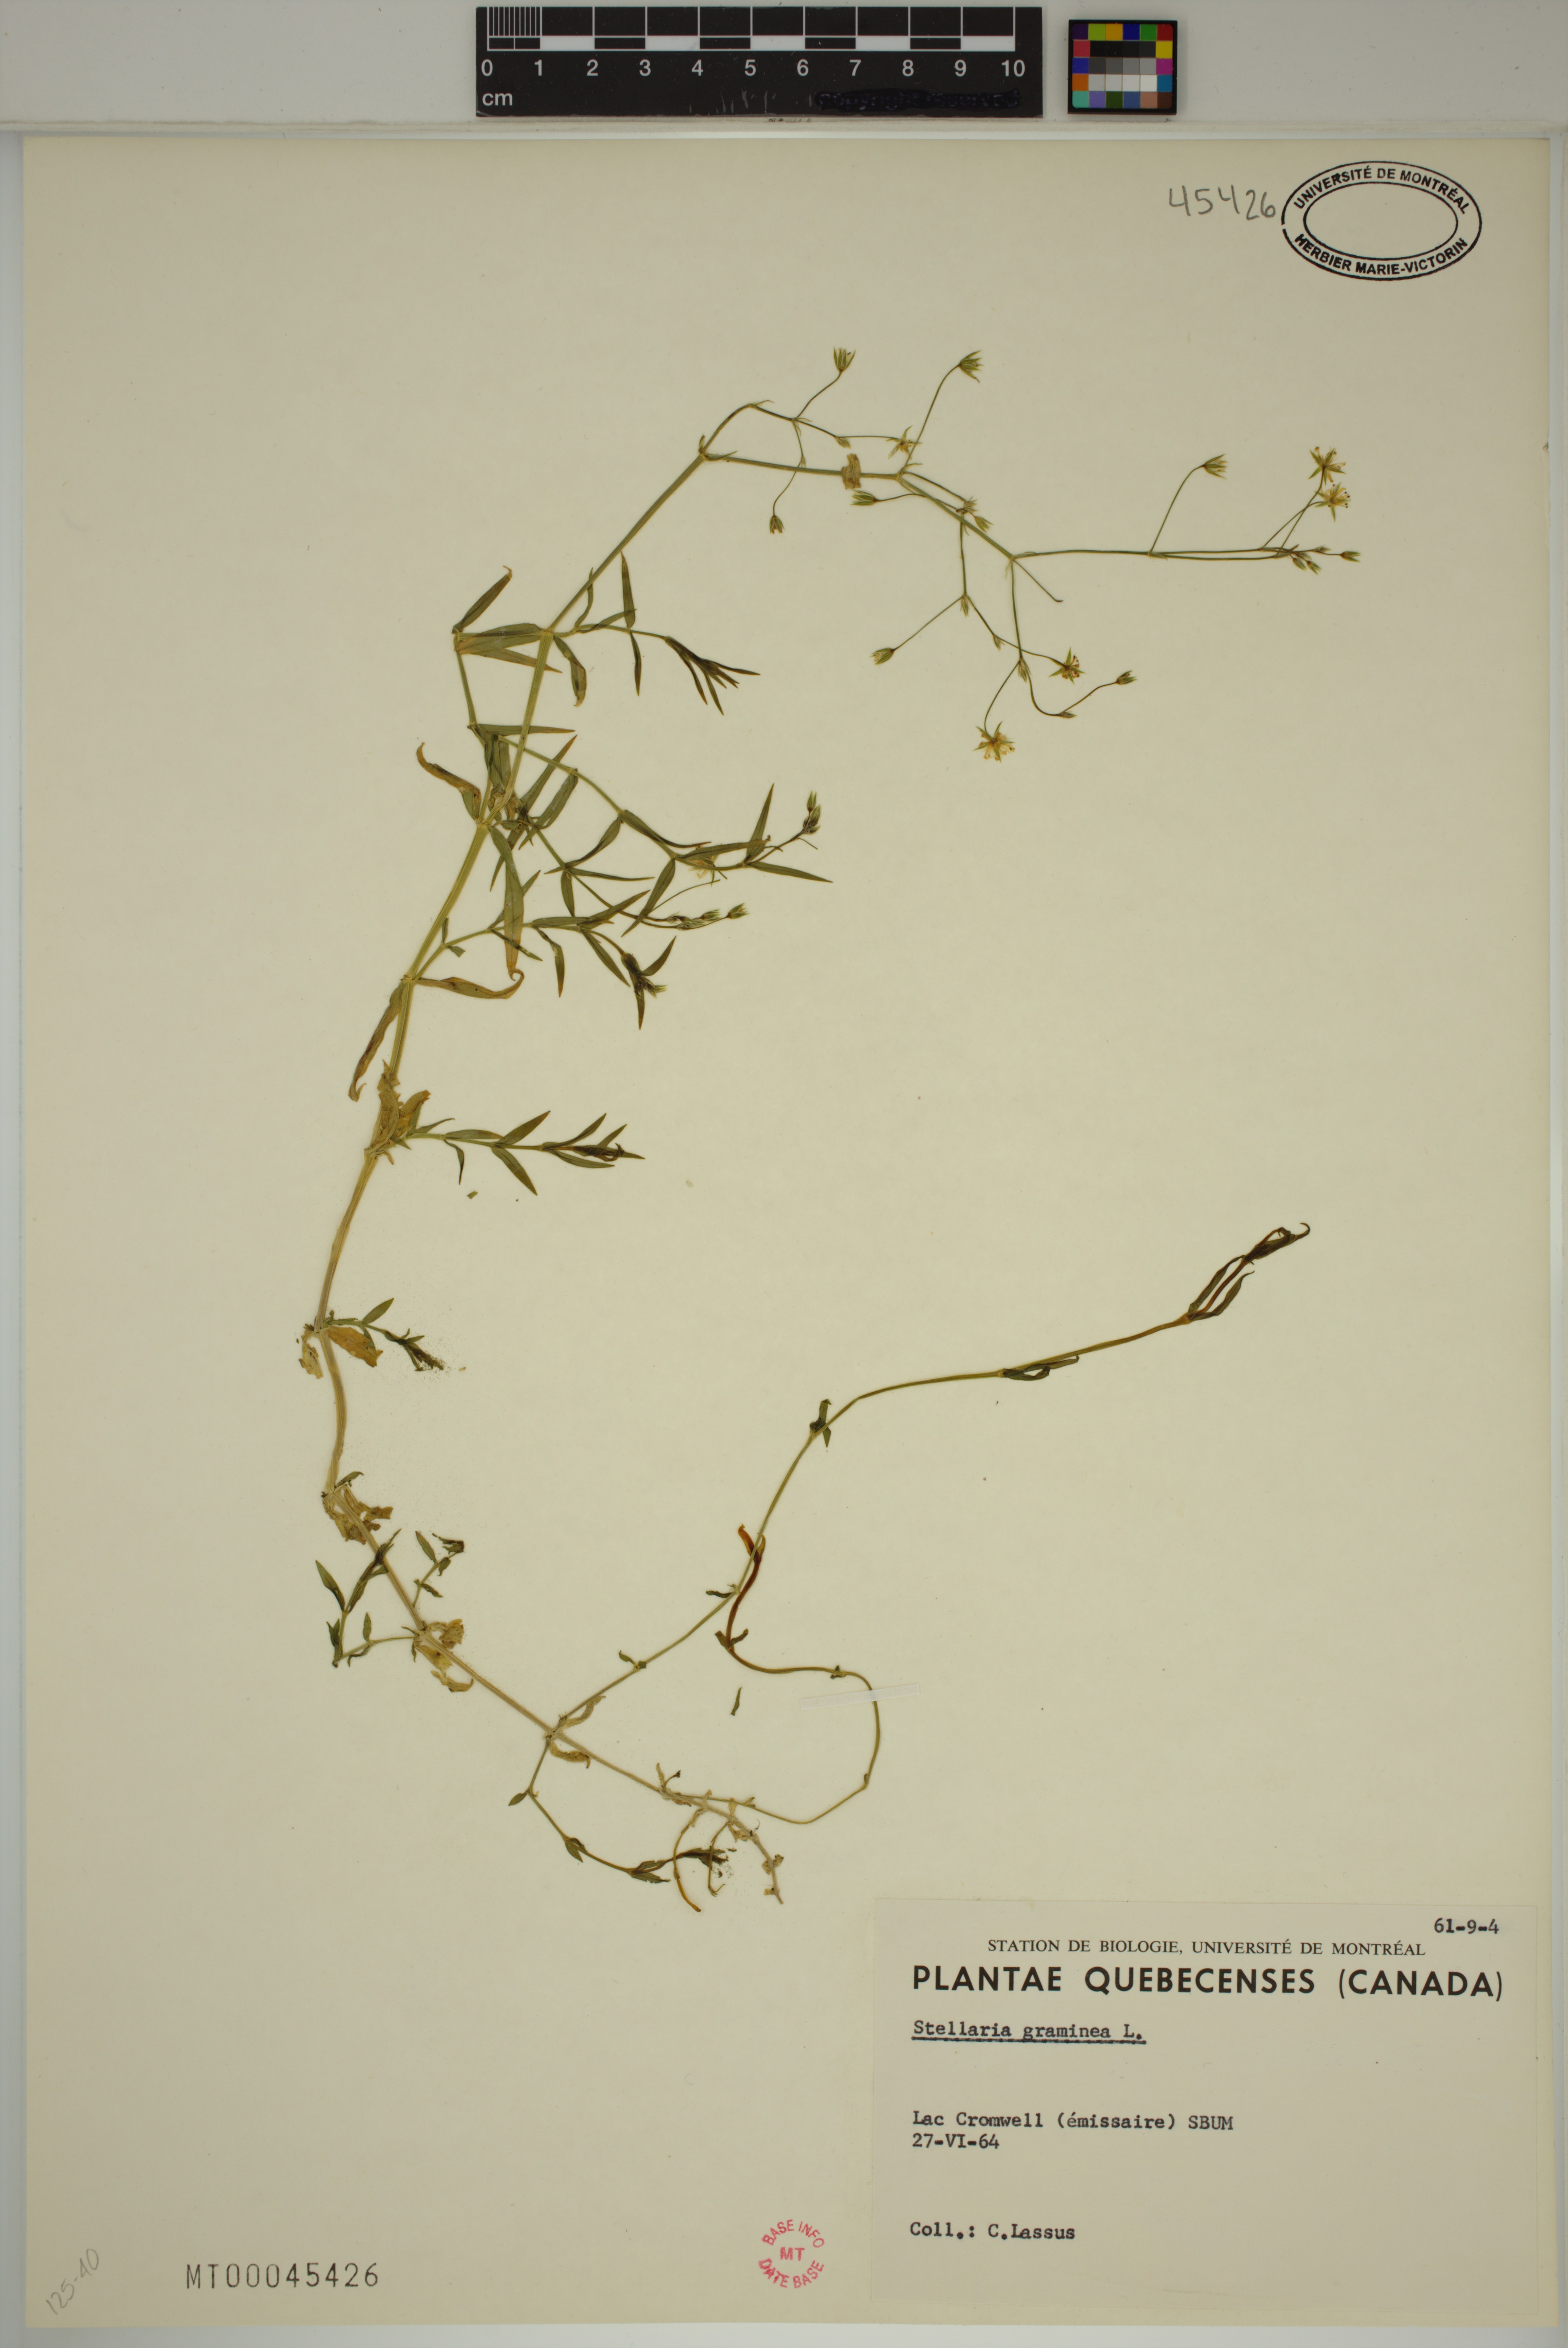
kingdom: Plantae
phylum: Tracheophyta
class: Magnoliopsida
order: Caryophyllales
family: Caryophyllaceae
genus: Stellaria
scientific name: Stellaria graminea
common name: Grass-like starwort
